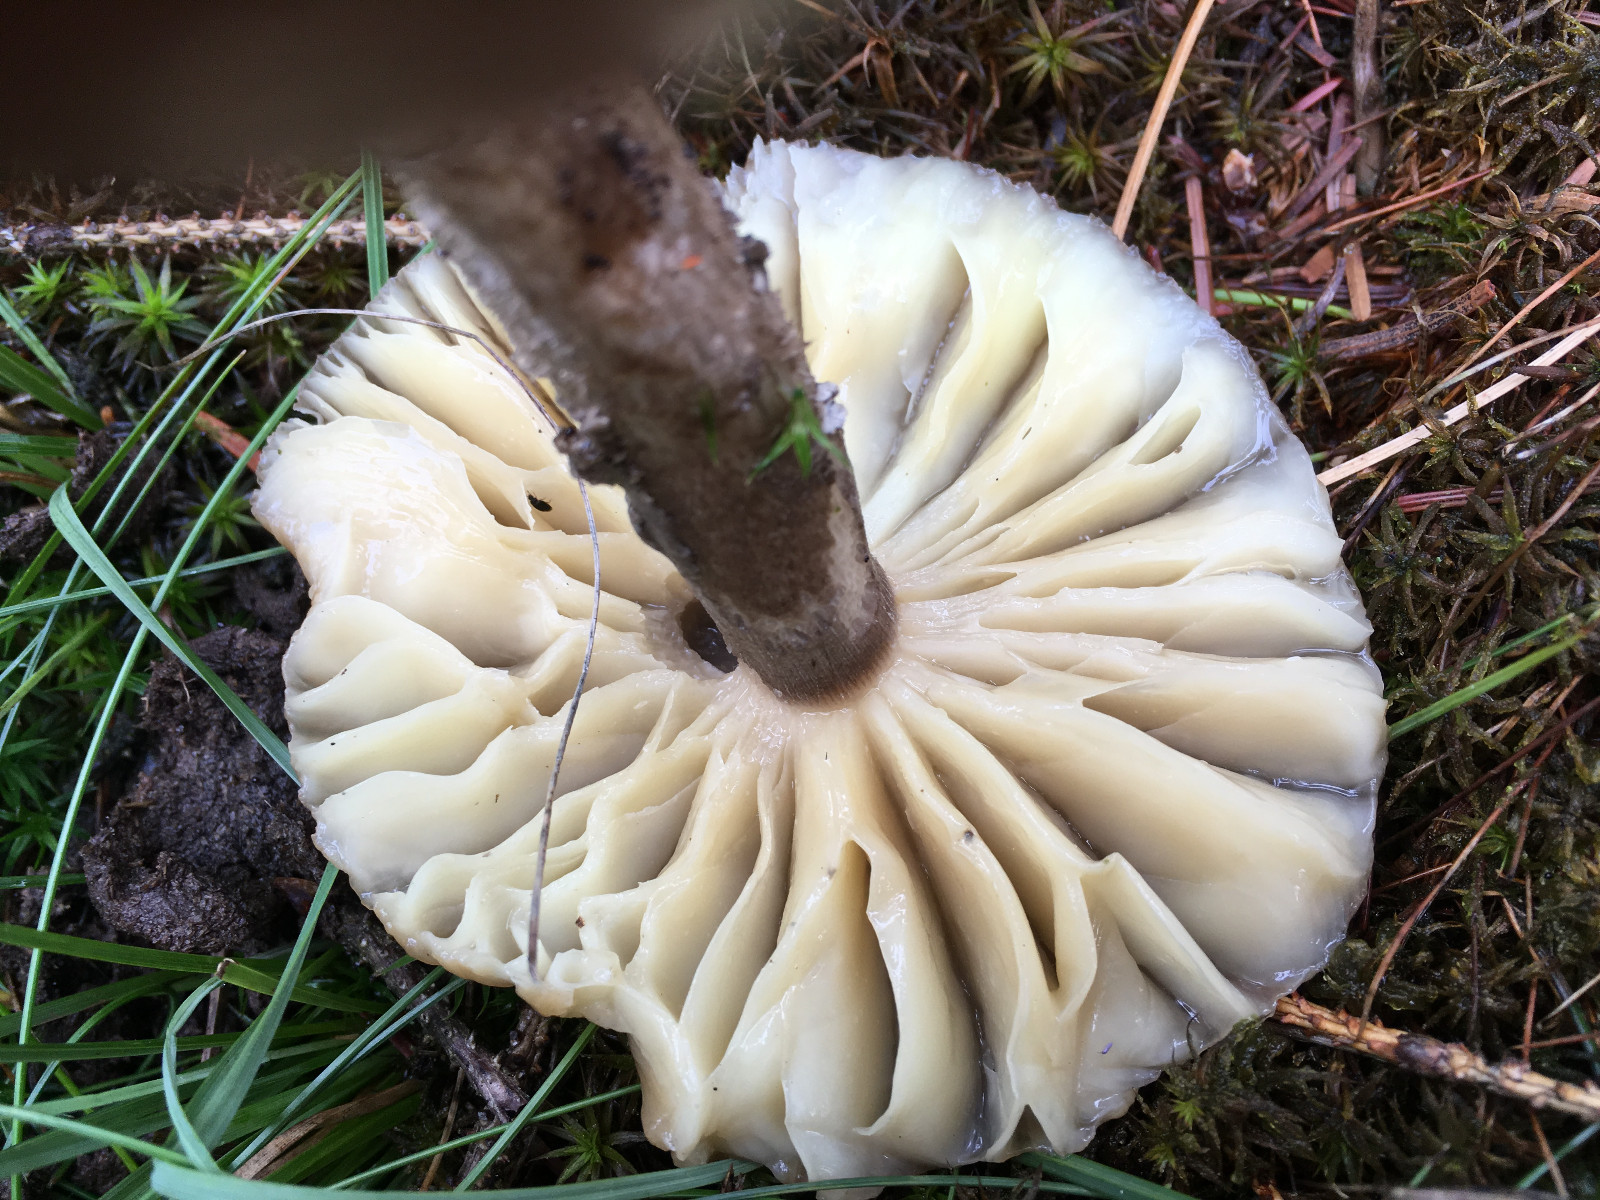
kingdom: Fungi
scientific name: Fungi
